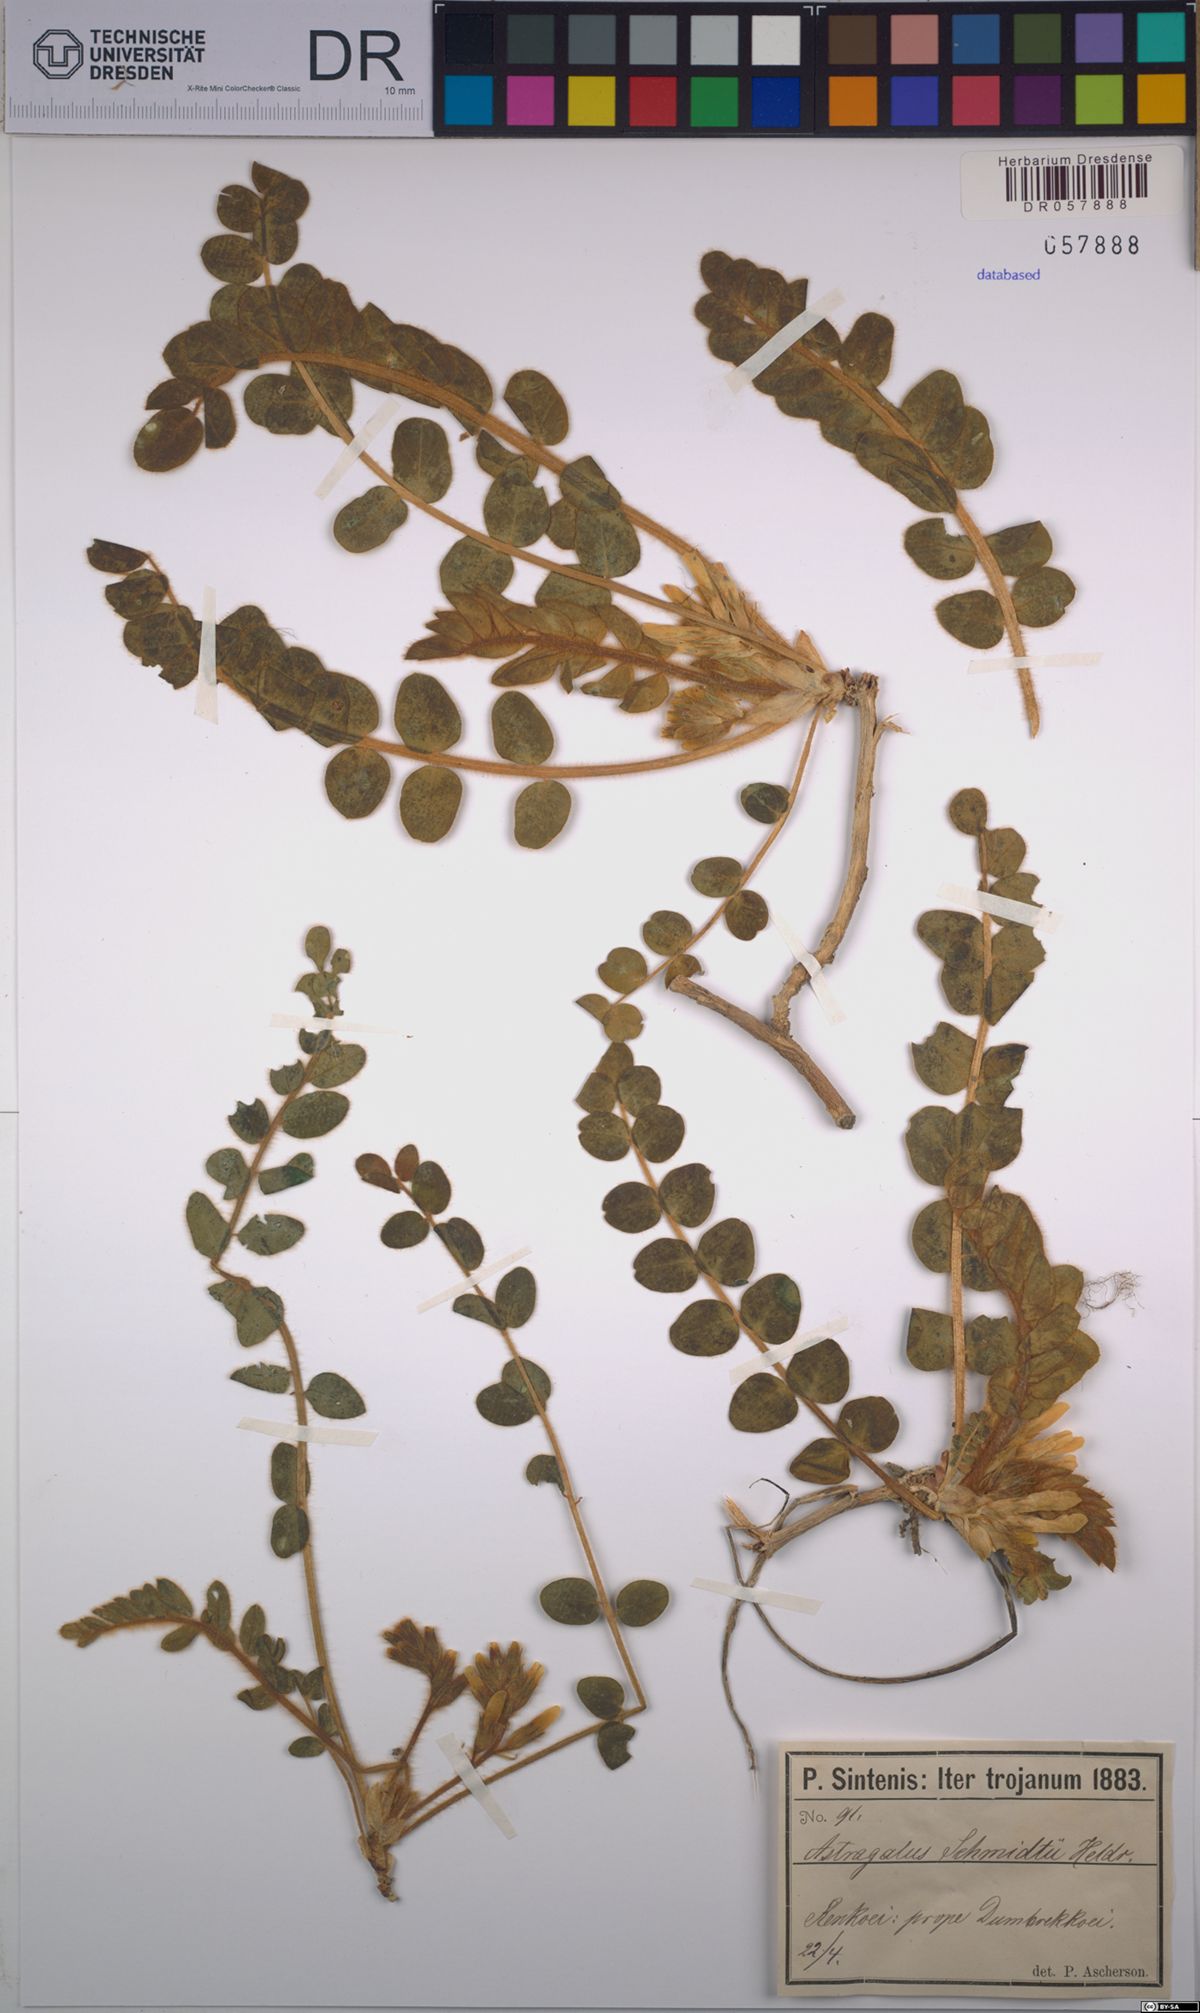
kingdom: Plantae
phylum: Tracheophyta
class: Magnoliopsida
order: Fabales
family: Fabaceae
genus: Astragalus
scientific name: Astragalus schmidii
